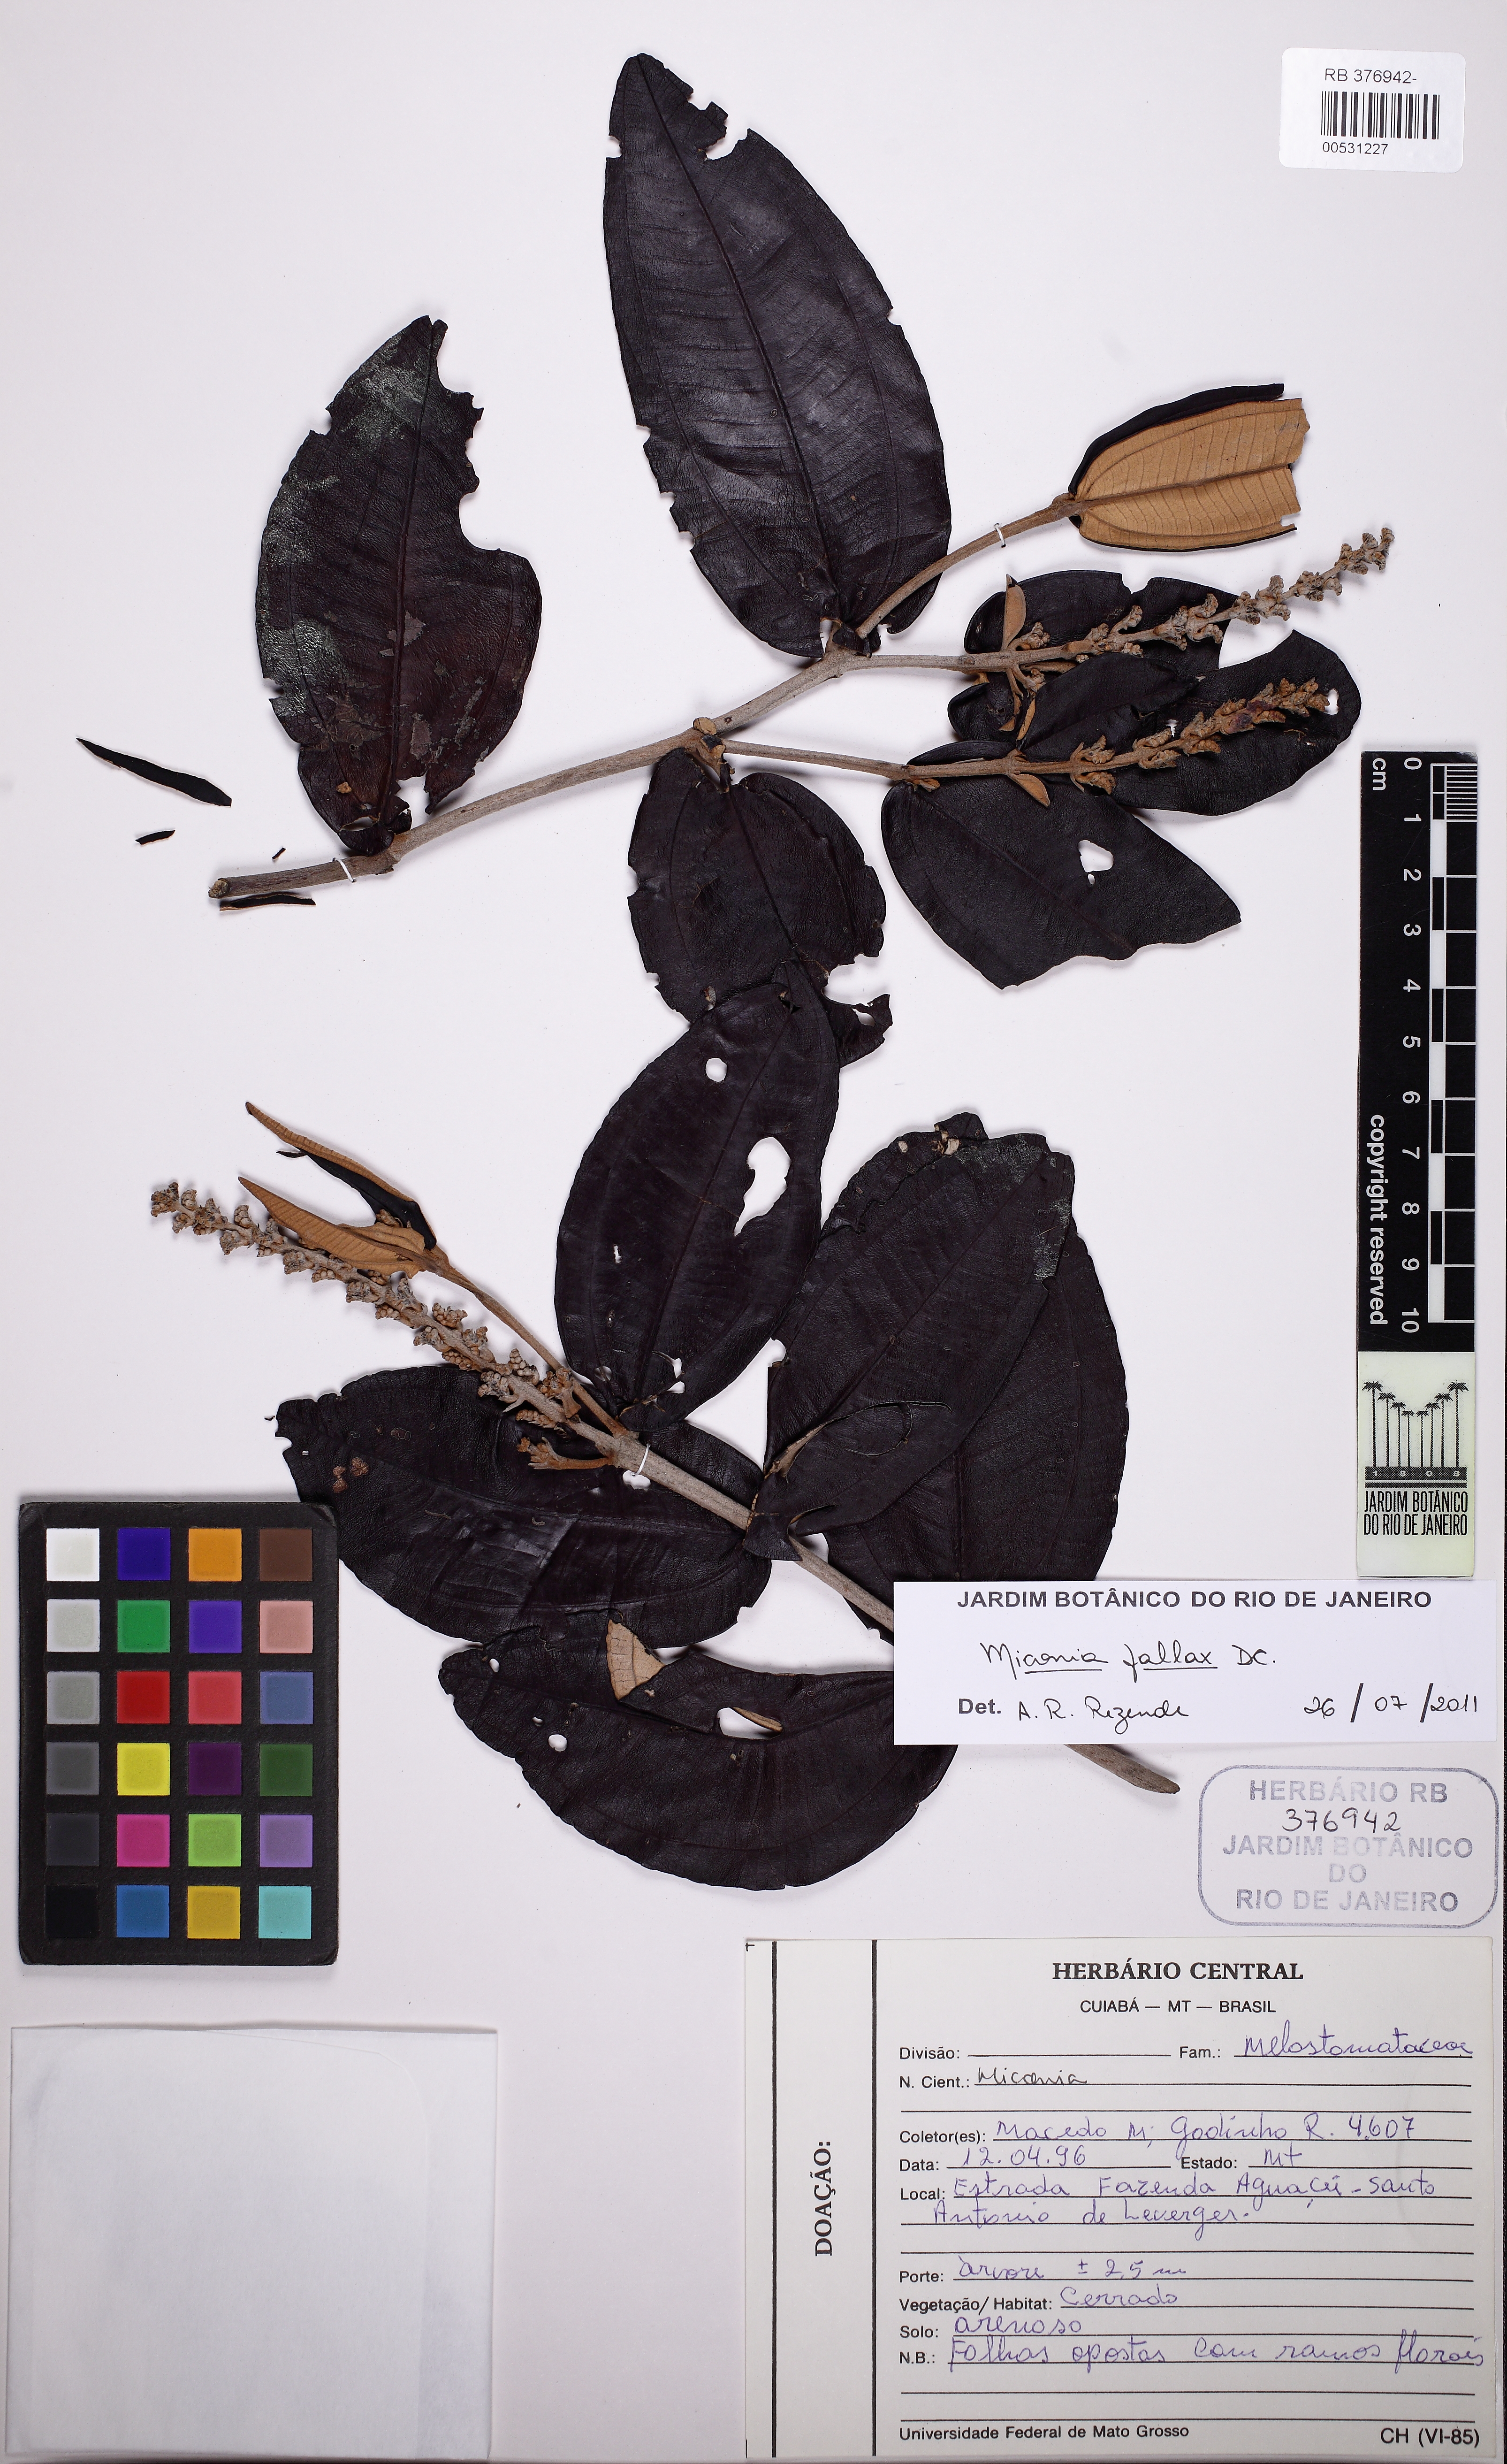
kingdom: Plantae
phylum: Tracheophyta
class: Magnoliopsida
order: Myrtales
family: Melastomataceae
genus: Miconia
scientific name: Miconia fallax
